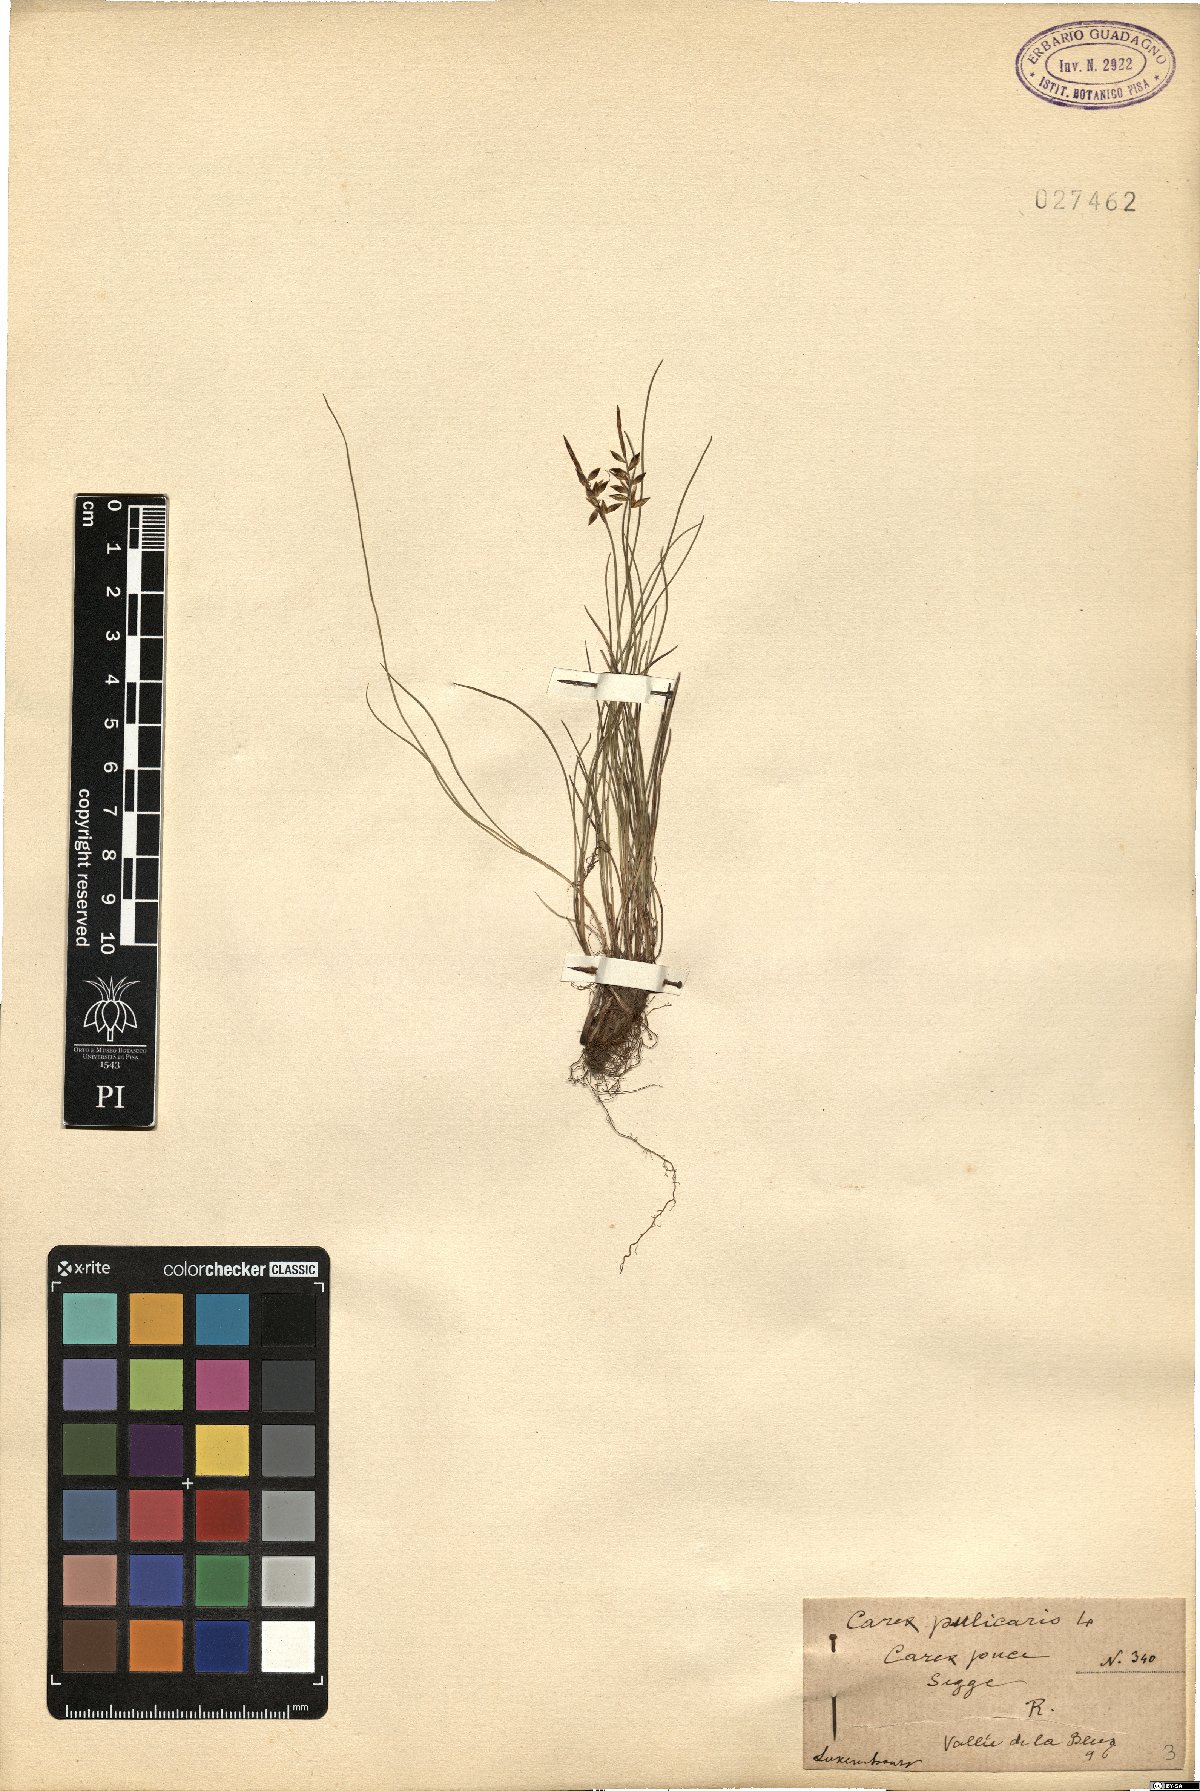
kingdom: Plantae
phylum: Tracheophyta
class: Liliopsida
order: Poales
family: Cyperaceae
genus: Carex
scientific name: Carex pulicaris
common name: Flea sedge
